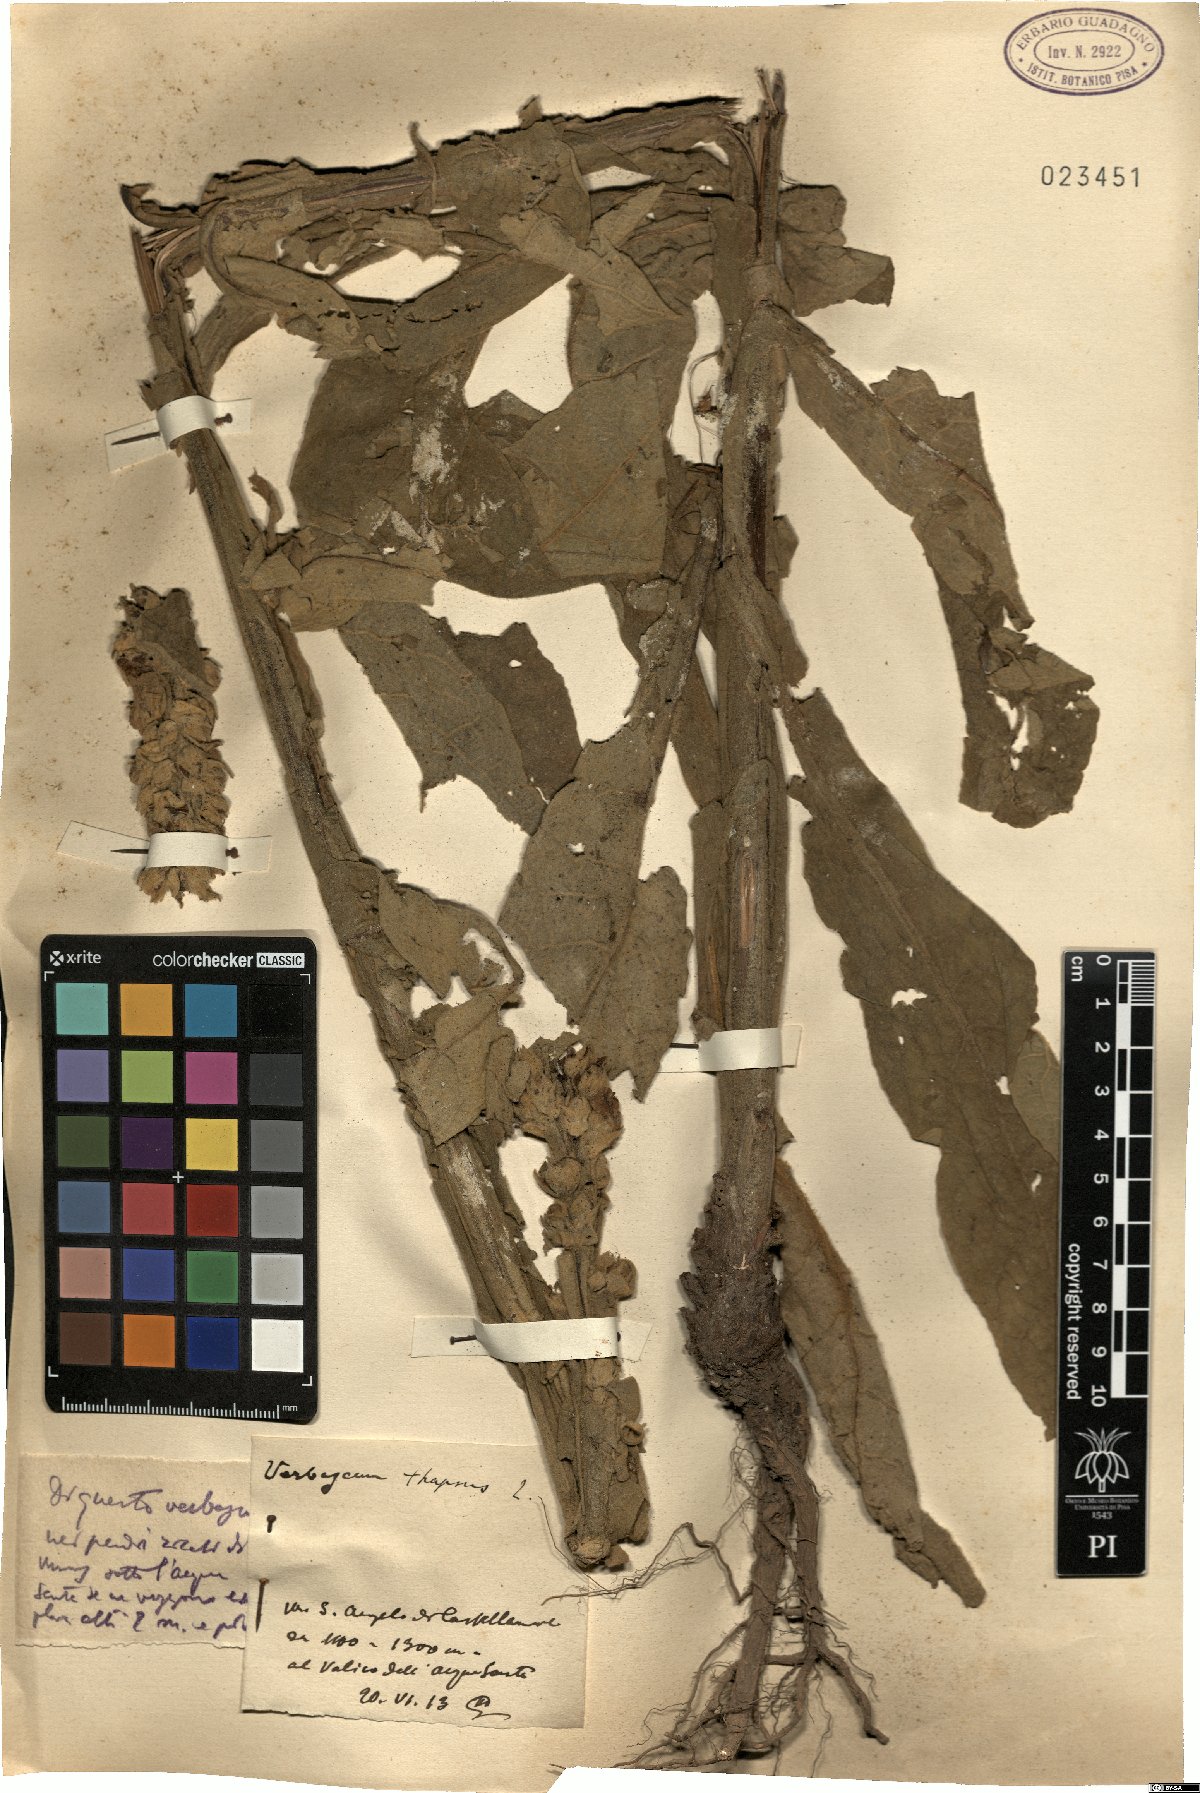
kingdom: Plantae
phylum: Tracheophyta
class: Magnoliopsida
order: Lamiales
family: Scrophulariaceae
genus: Verbascum
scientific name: Verbascum thapsus
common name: Common mullein
